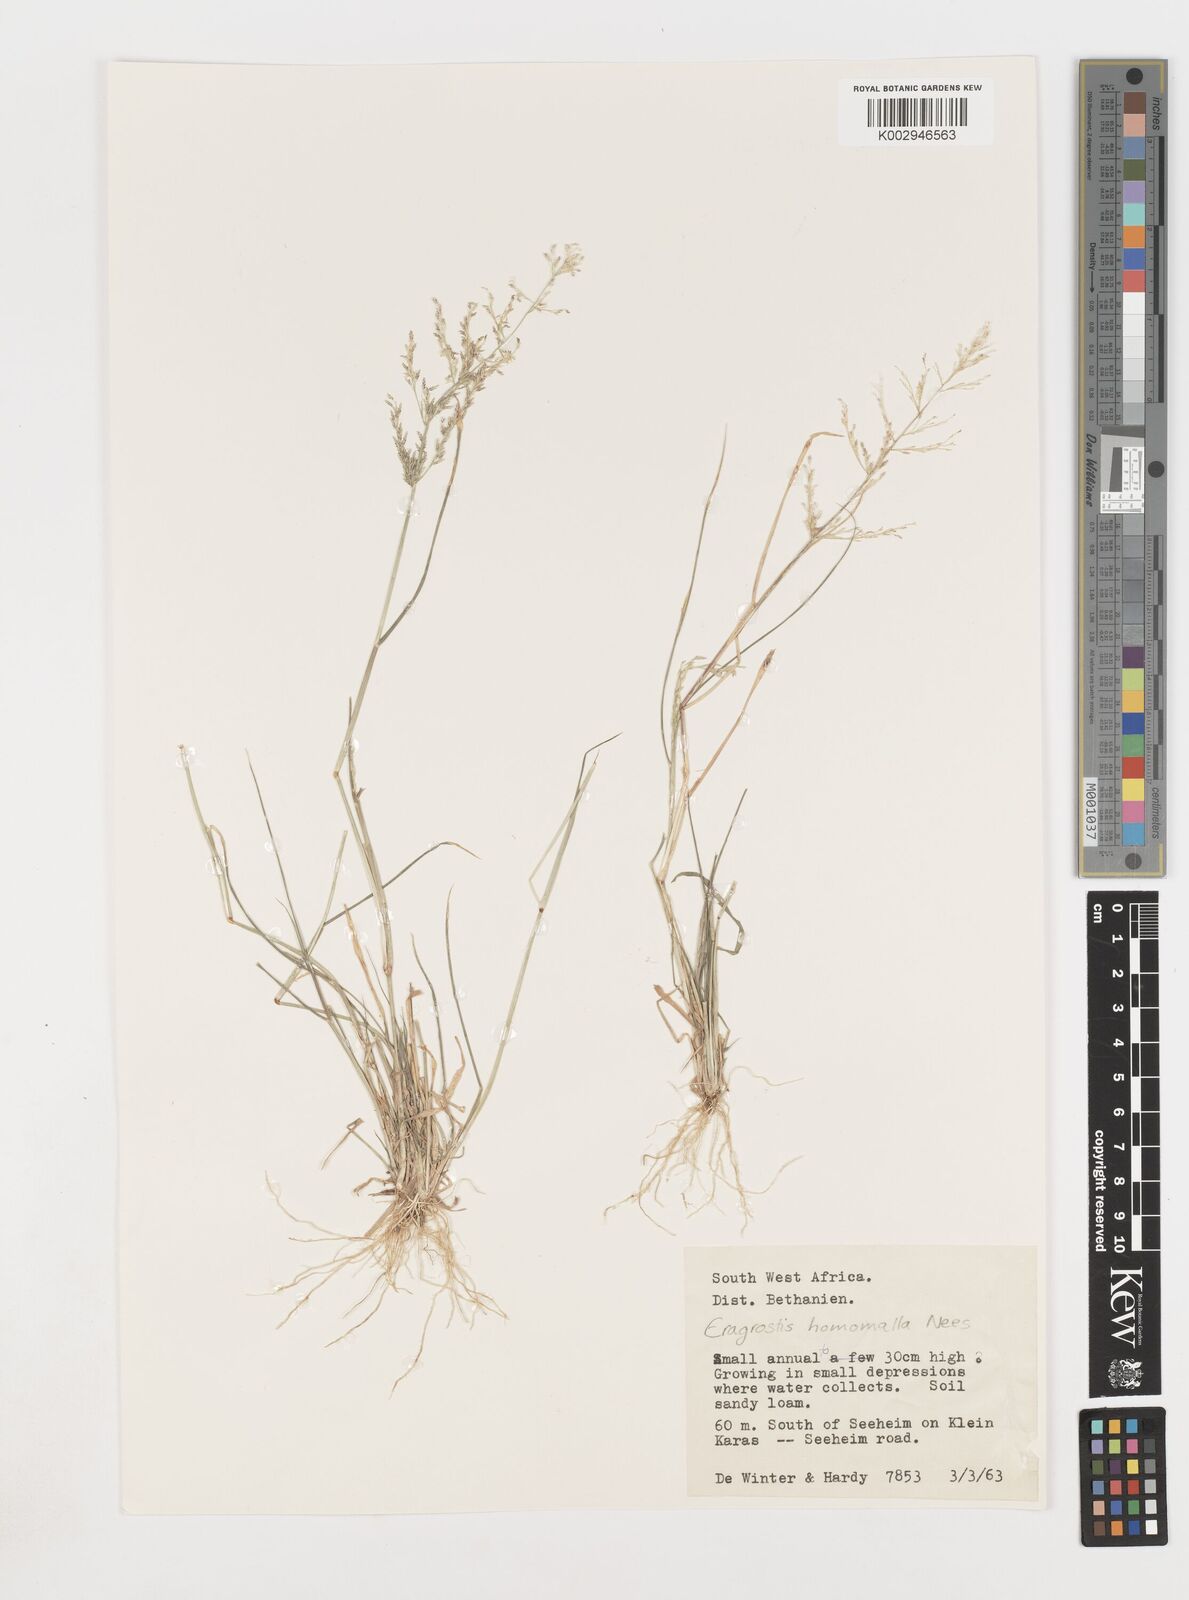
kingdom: Plantae
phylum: Tracheophyta
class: Liliopsida
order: Poales
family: Poaceae
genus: Eragrostis
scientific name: Eragrostis homomalla
